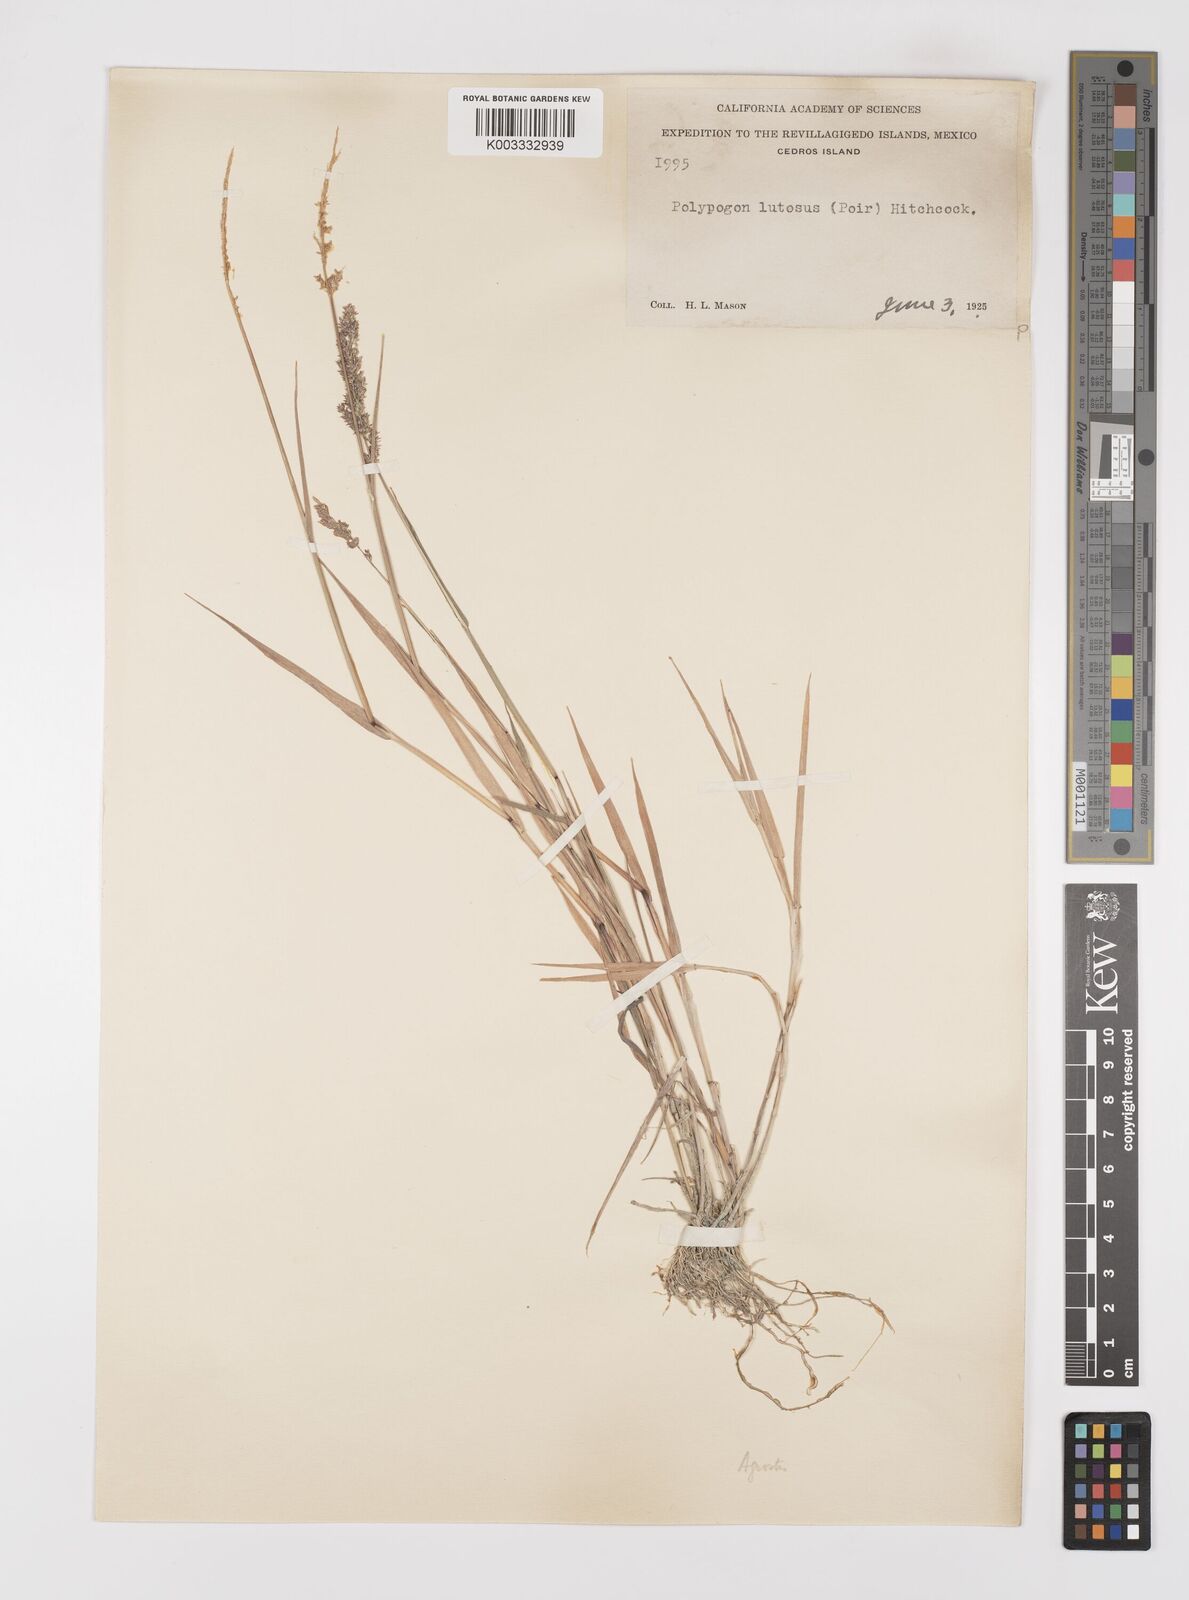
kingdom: Plantae
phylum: Tracheophyta
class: Liliopsida
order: Poales
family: Poaceae
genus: Polypogon
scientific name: Polypogon viridis
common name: Water bent
